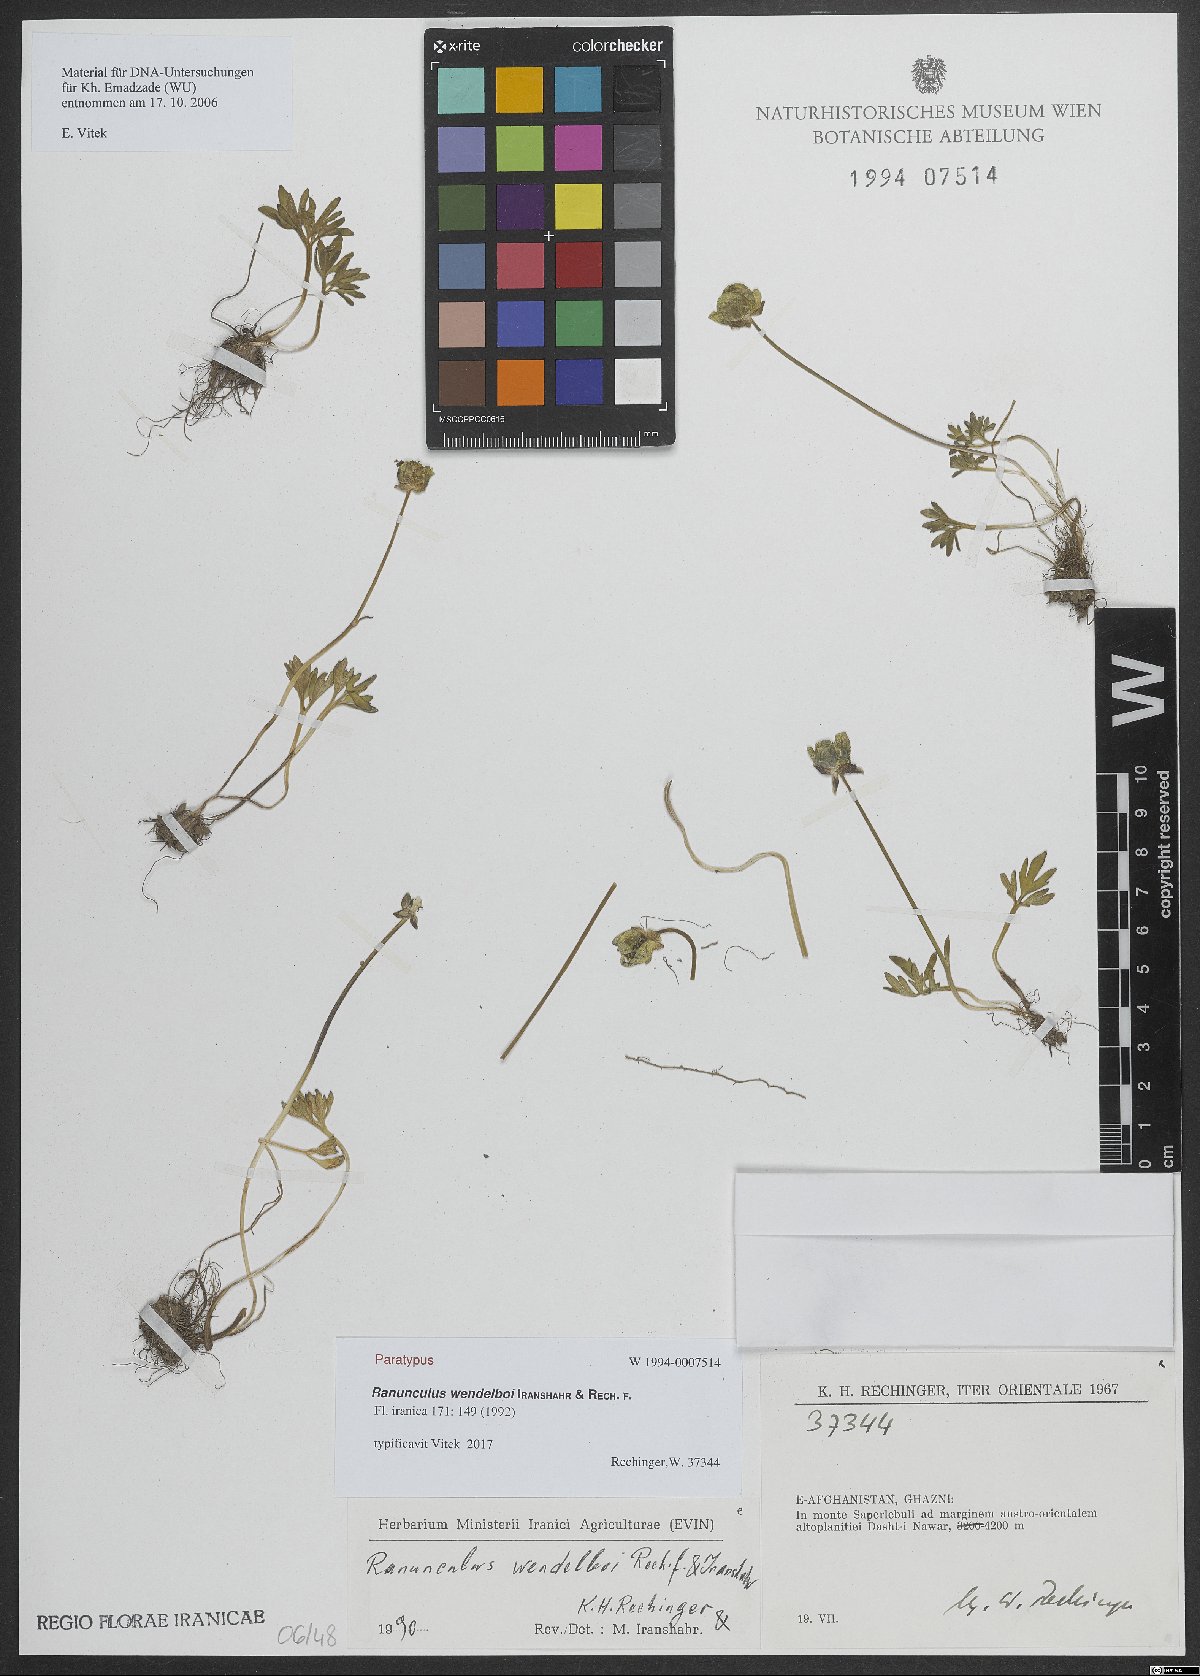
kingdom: Plantae
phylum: Tracheophyta
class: Magnoliopsida
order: Ranunculales
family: Ranunculaceae
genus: Ranunculus
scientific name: Ranunculus wendelboi
